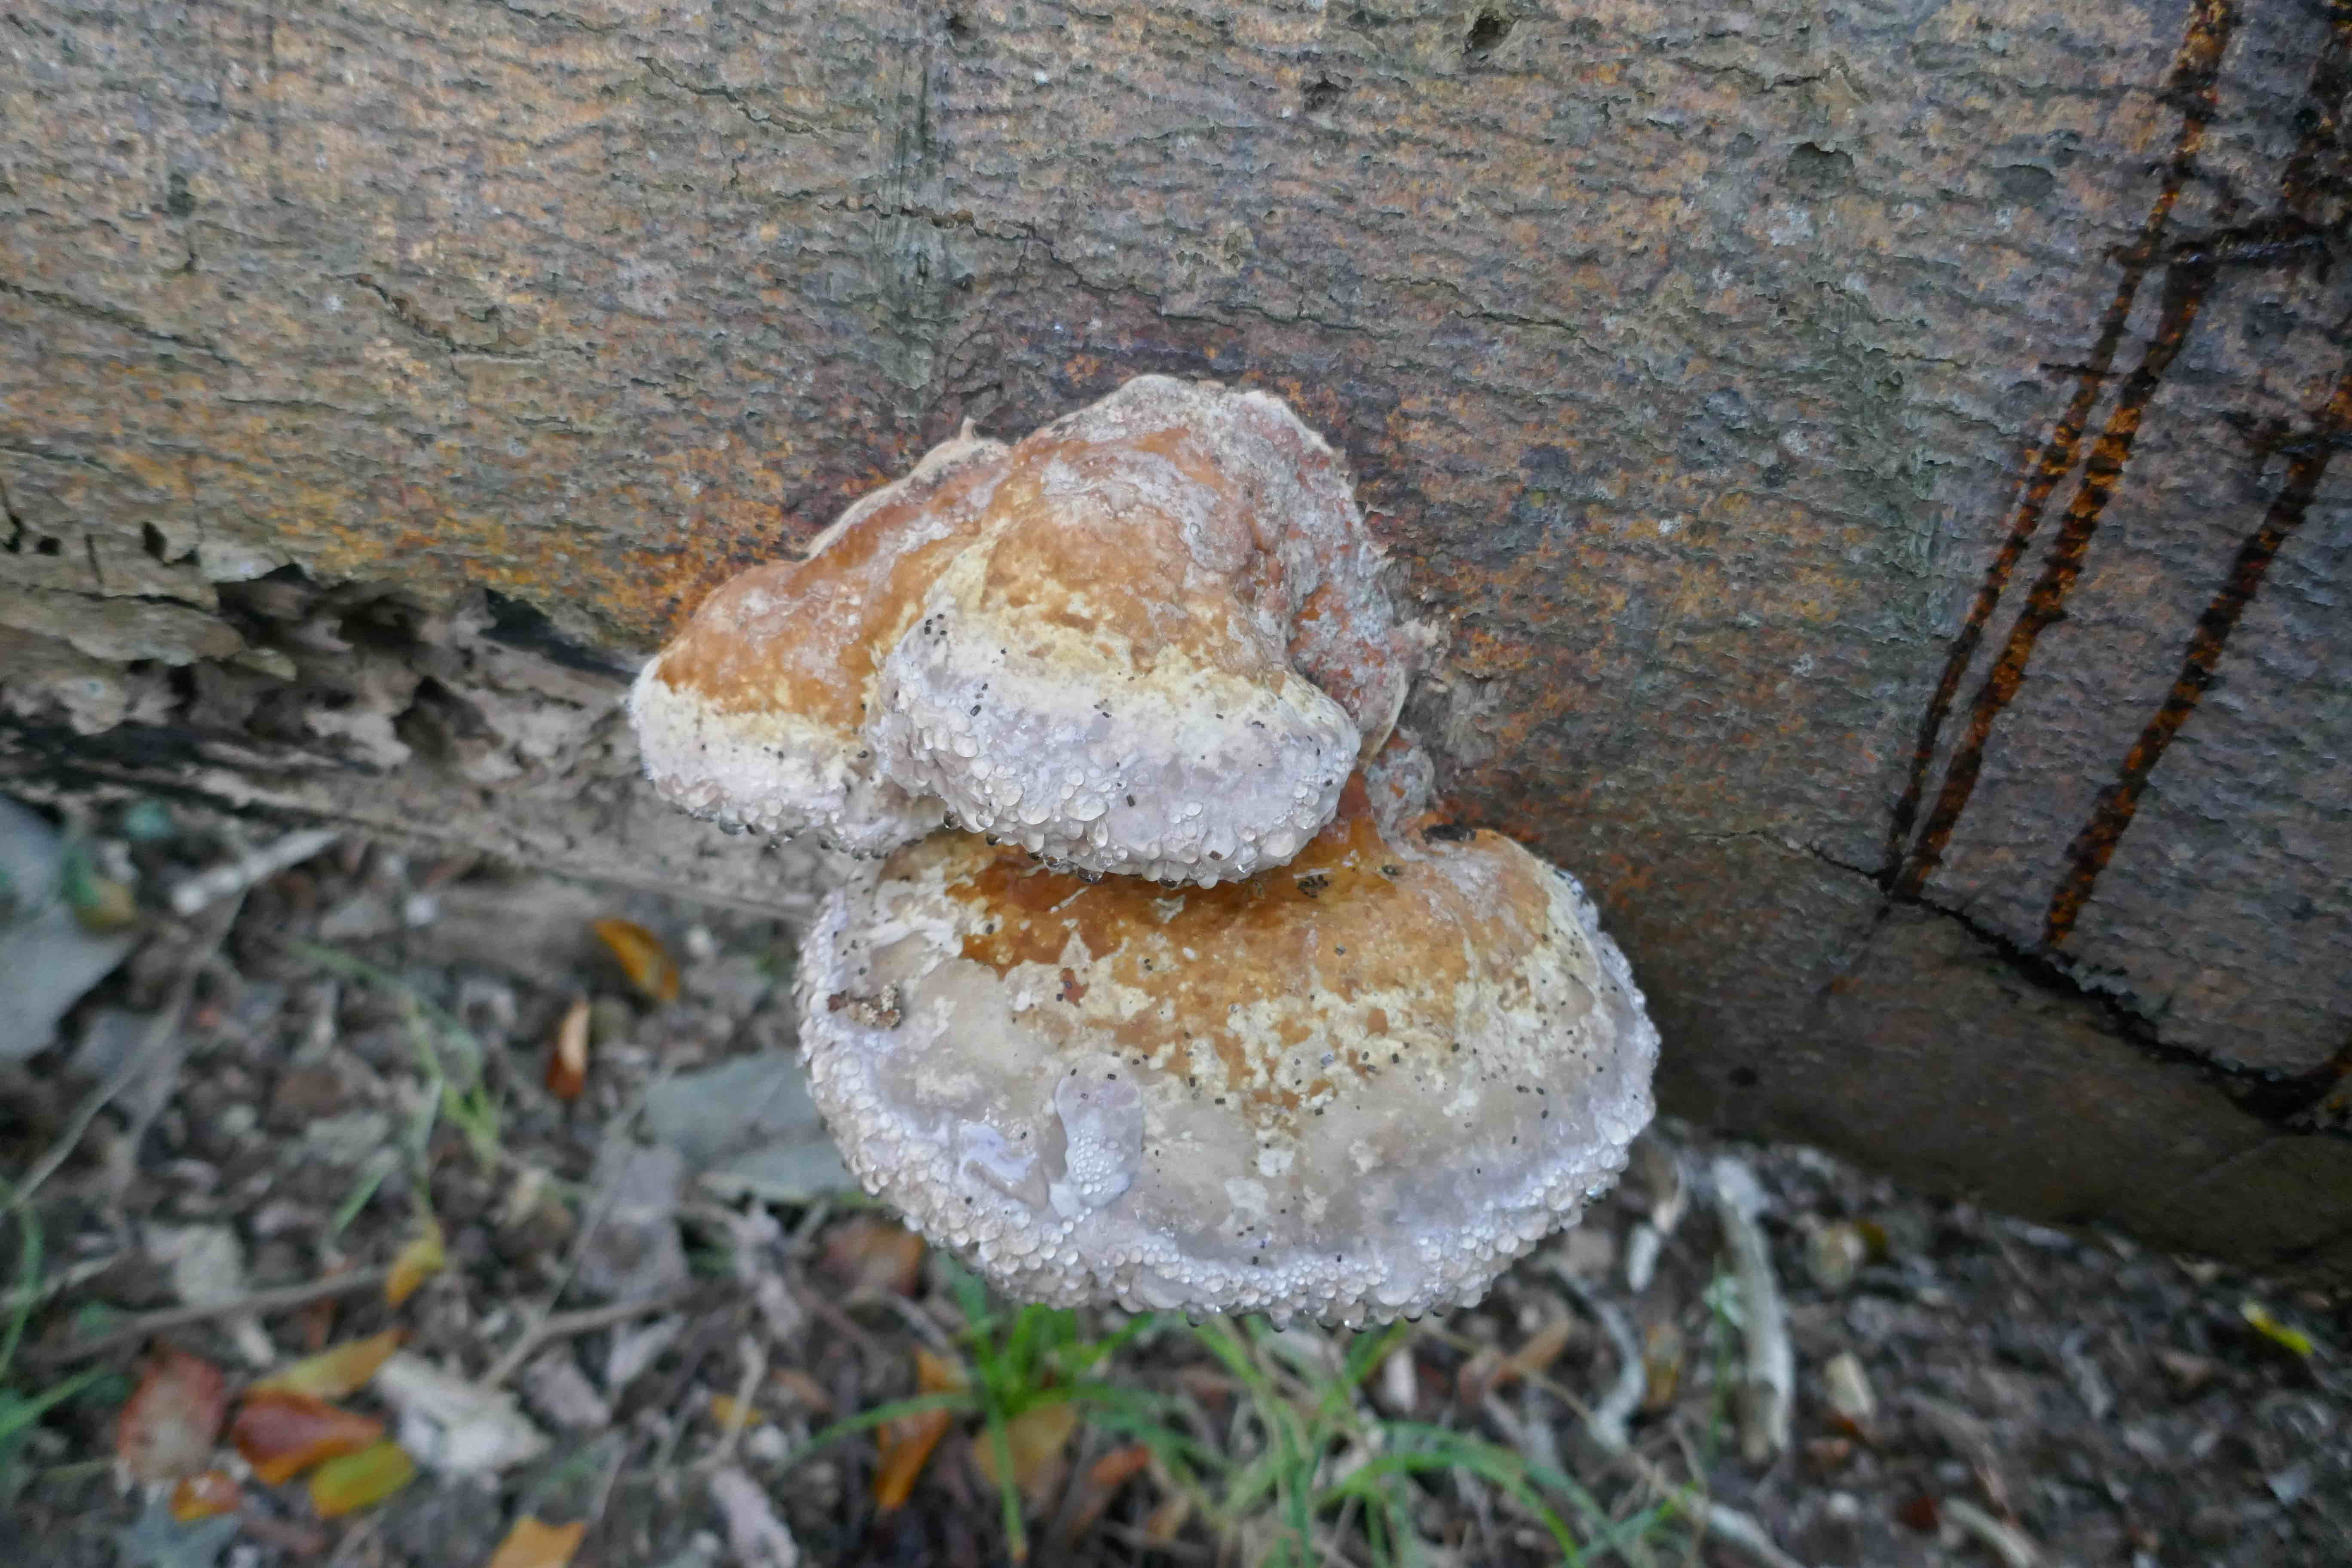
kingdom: Fungi
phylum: Basidiomycota
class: Agaricomycetes
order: Polyporales
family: Fomitopsidaceae
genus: Fomitopsis
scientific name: Fomitopsis pinicola
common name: randbæltet hovporesvamp
